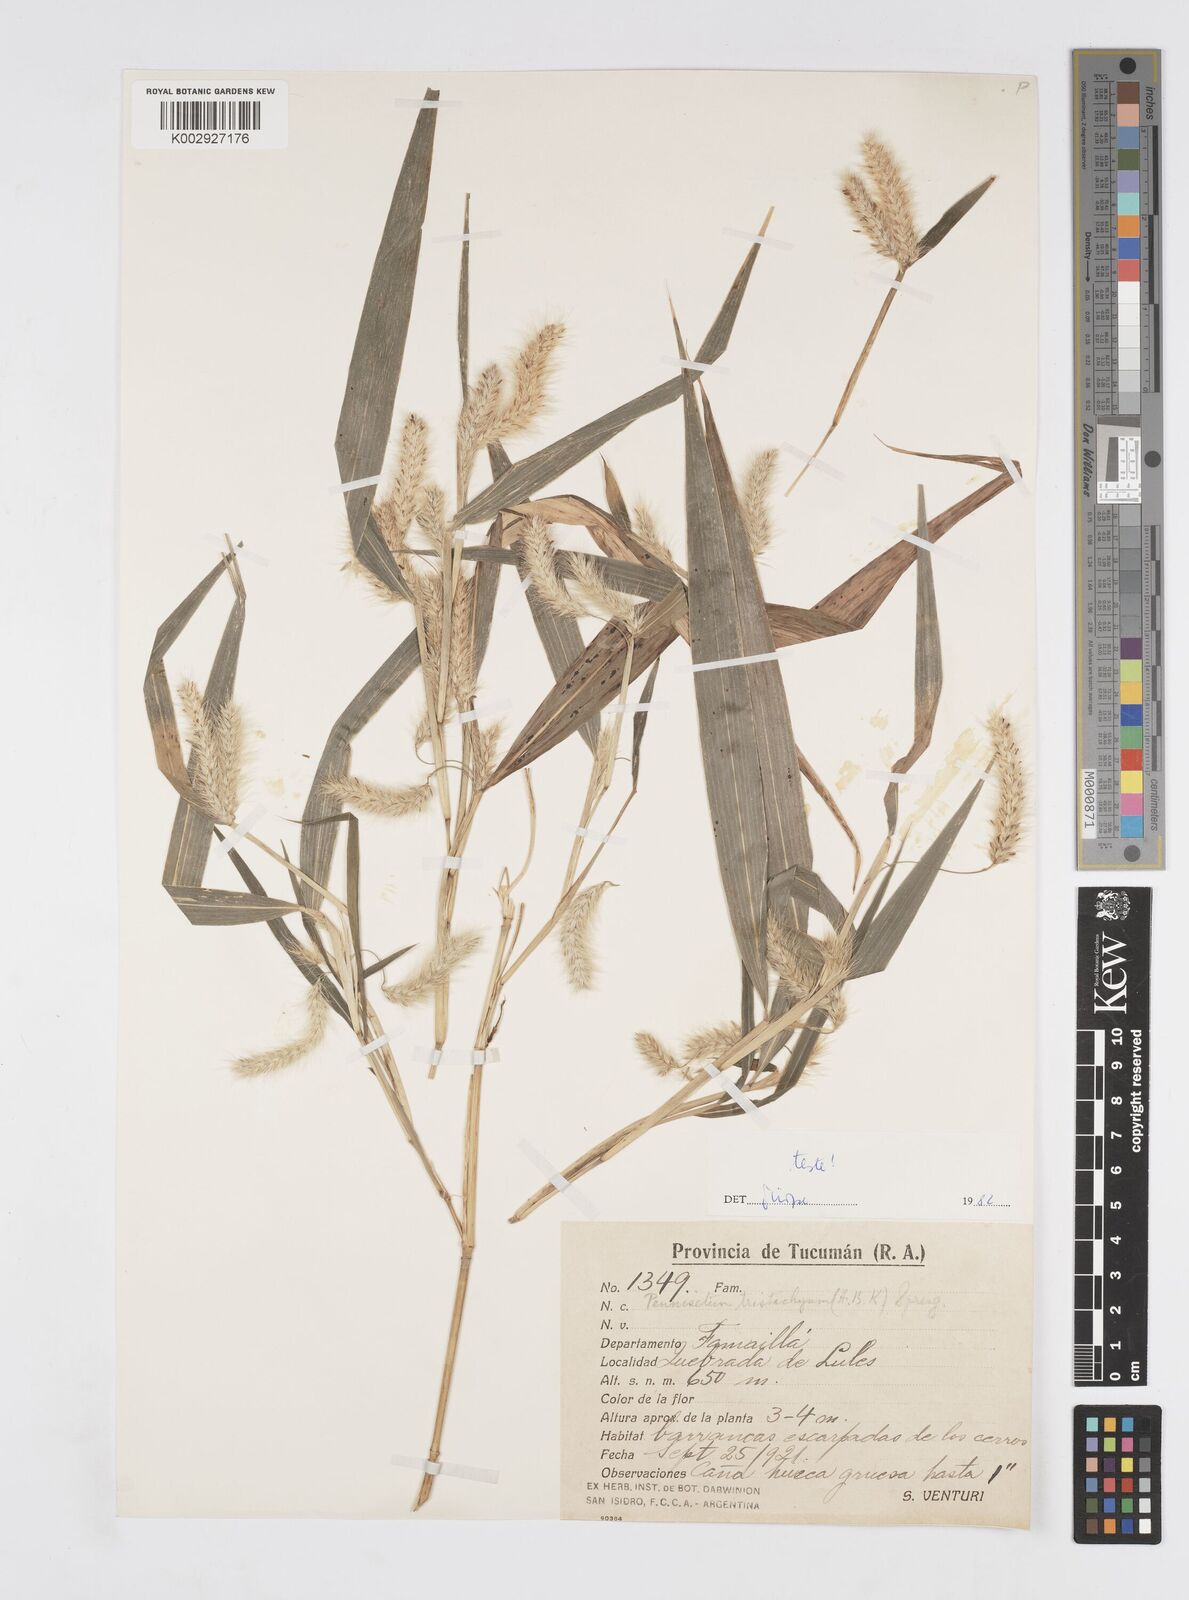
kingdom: Plantae
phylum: Tracheophyta
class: Liliopsida
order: Poales
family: Poaceae
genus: Cenchrus
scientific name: Cenchrus tristachyus
